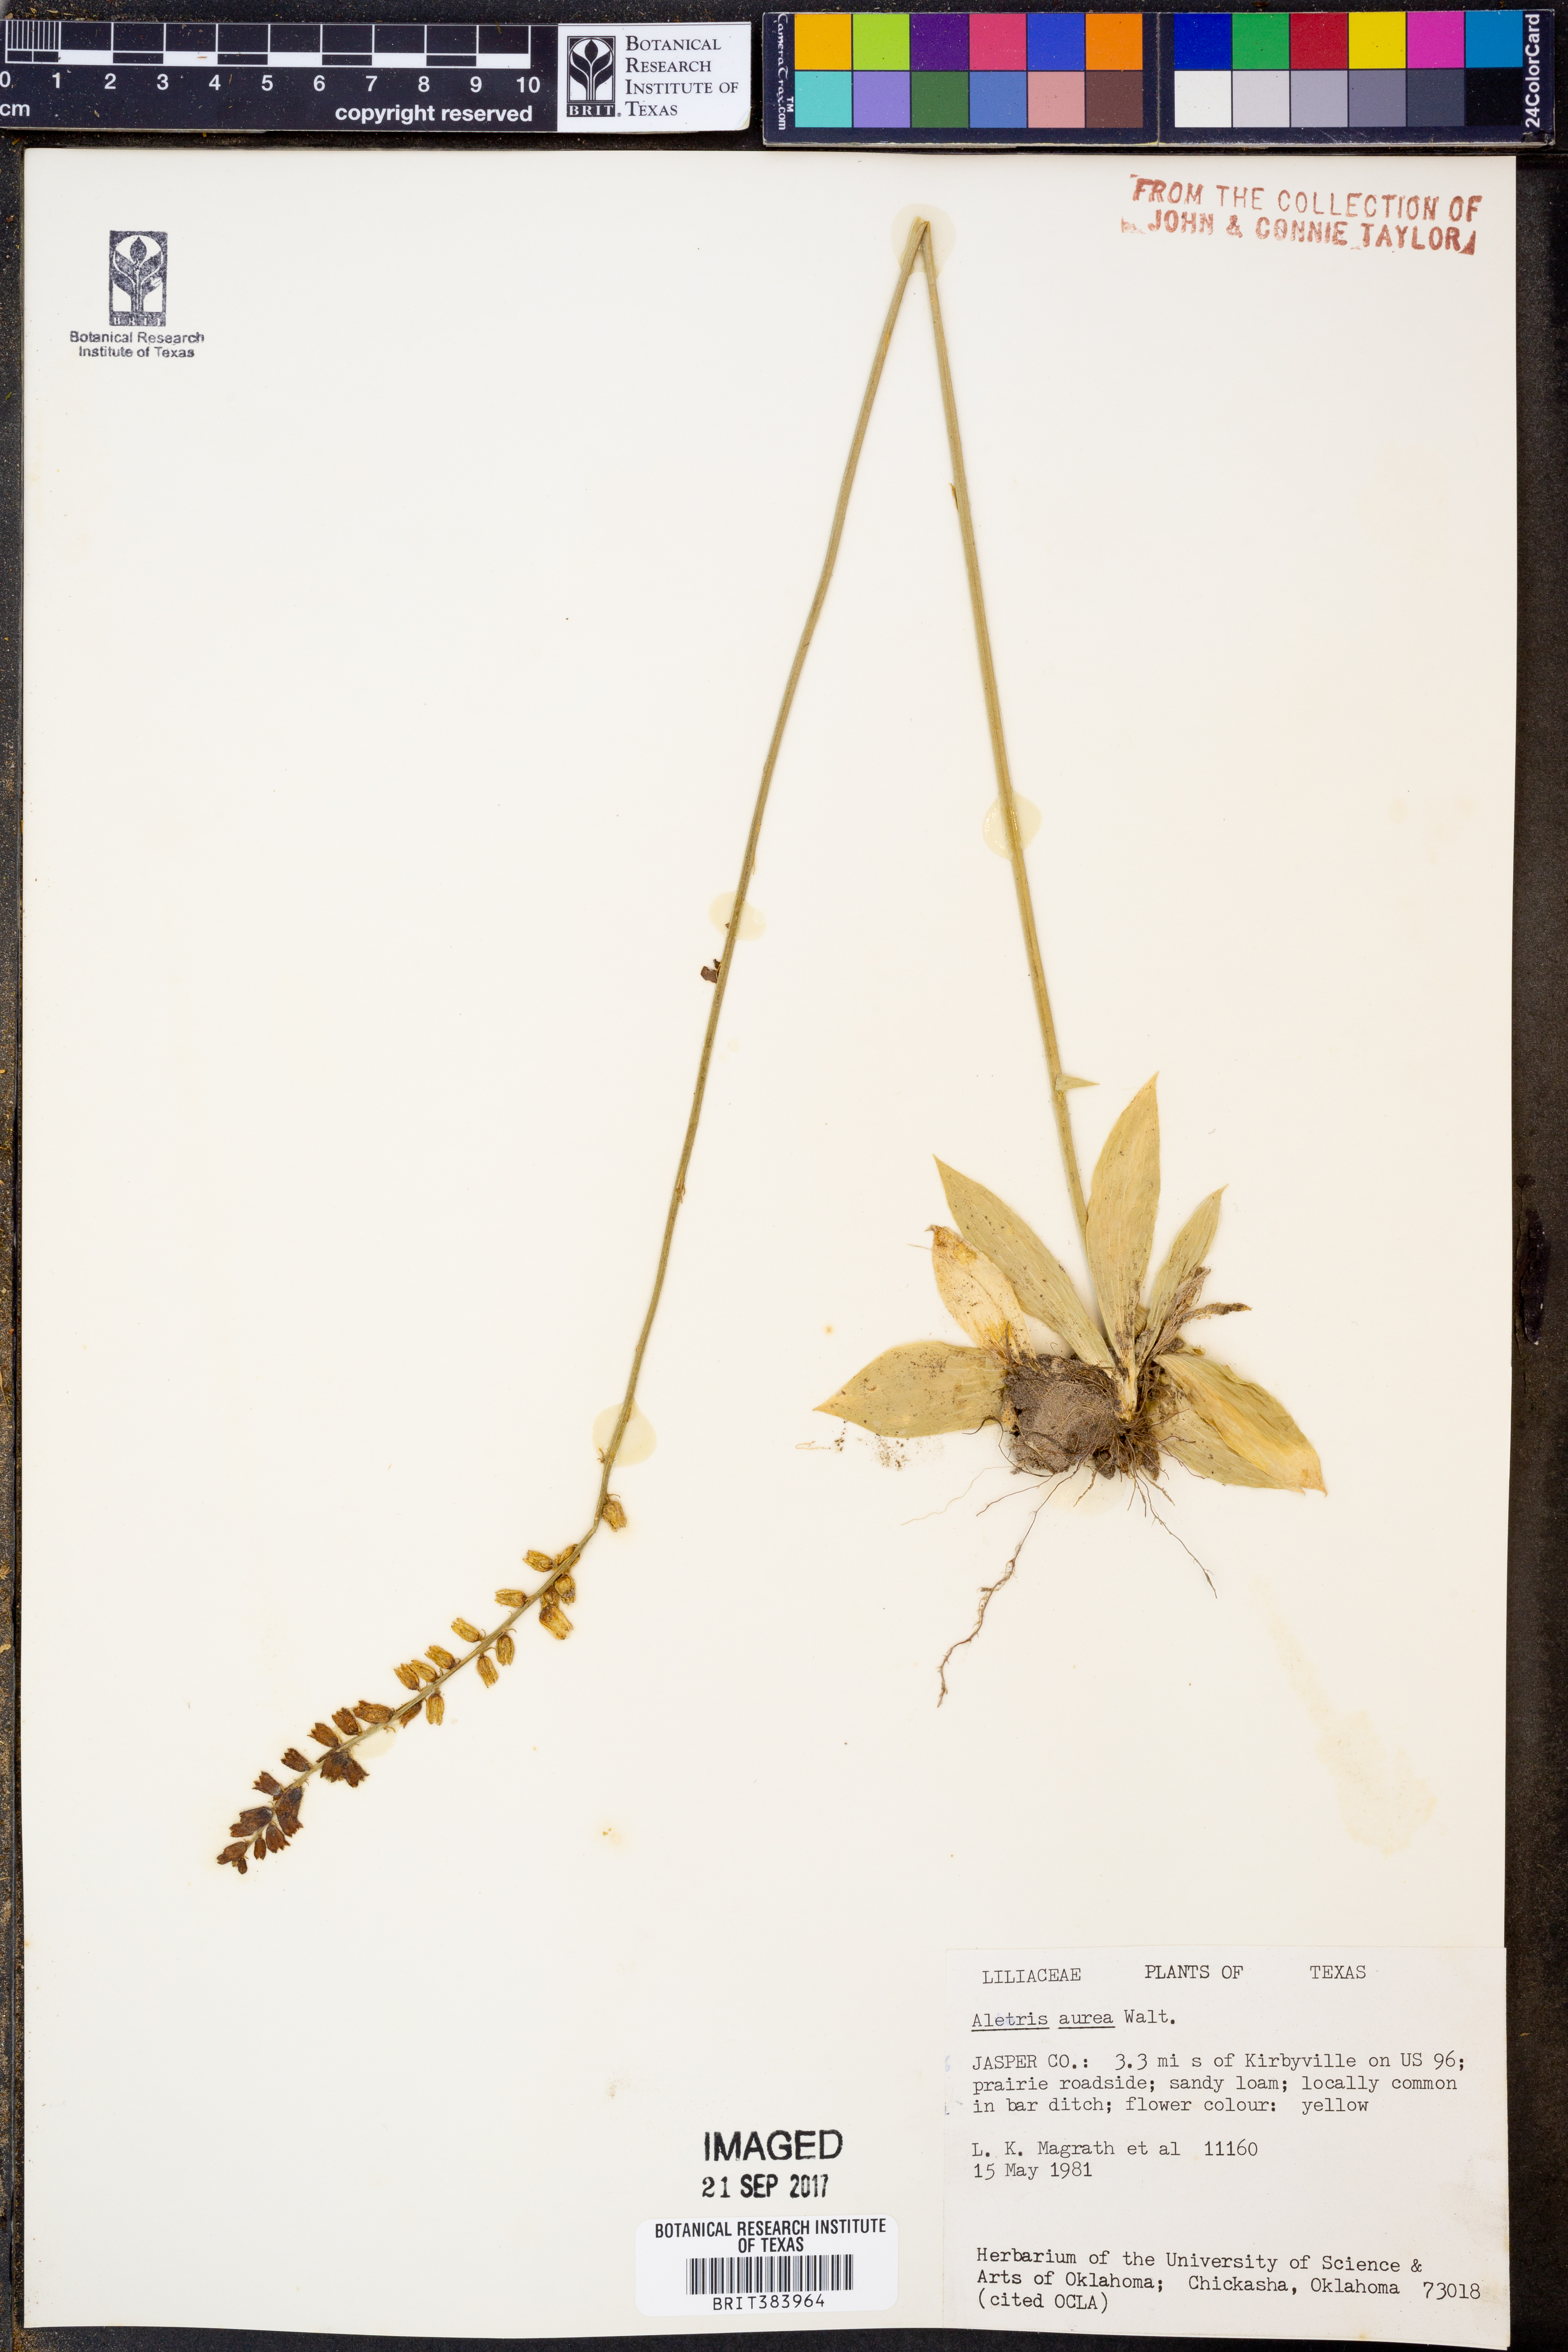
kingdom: Plantae
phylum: Tracheophyta
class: Liliopsida
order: Dioscoreales
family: Nartheciaceae
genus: Aletris
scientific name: Aletris aurea
